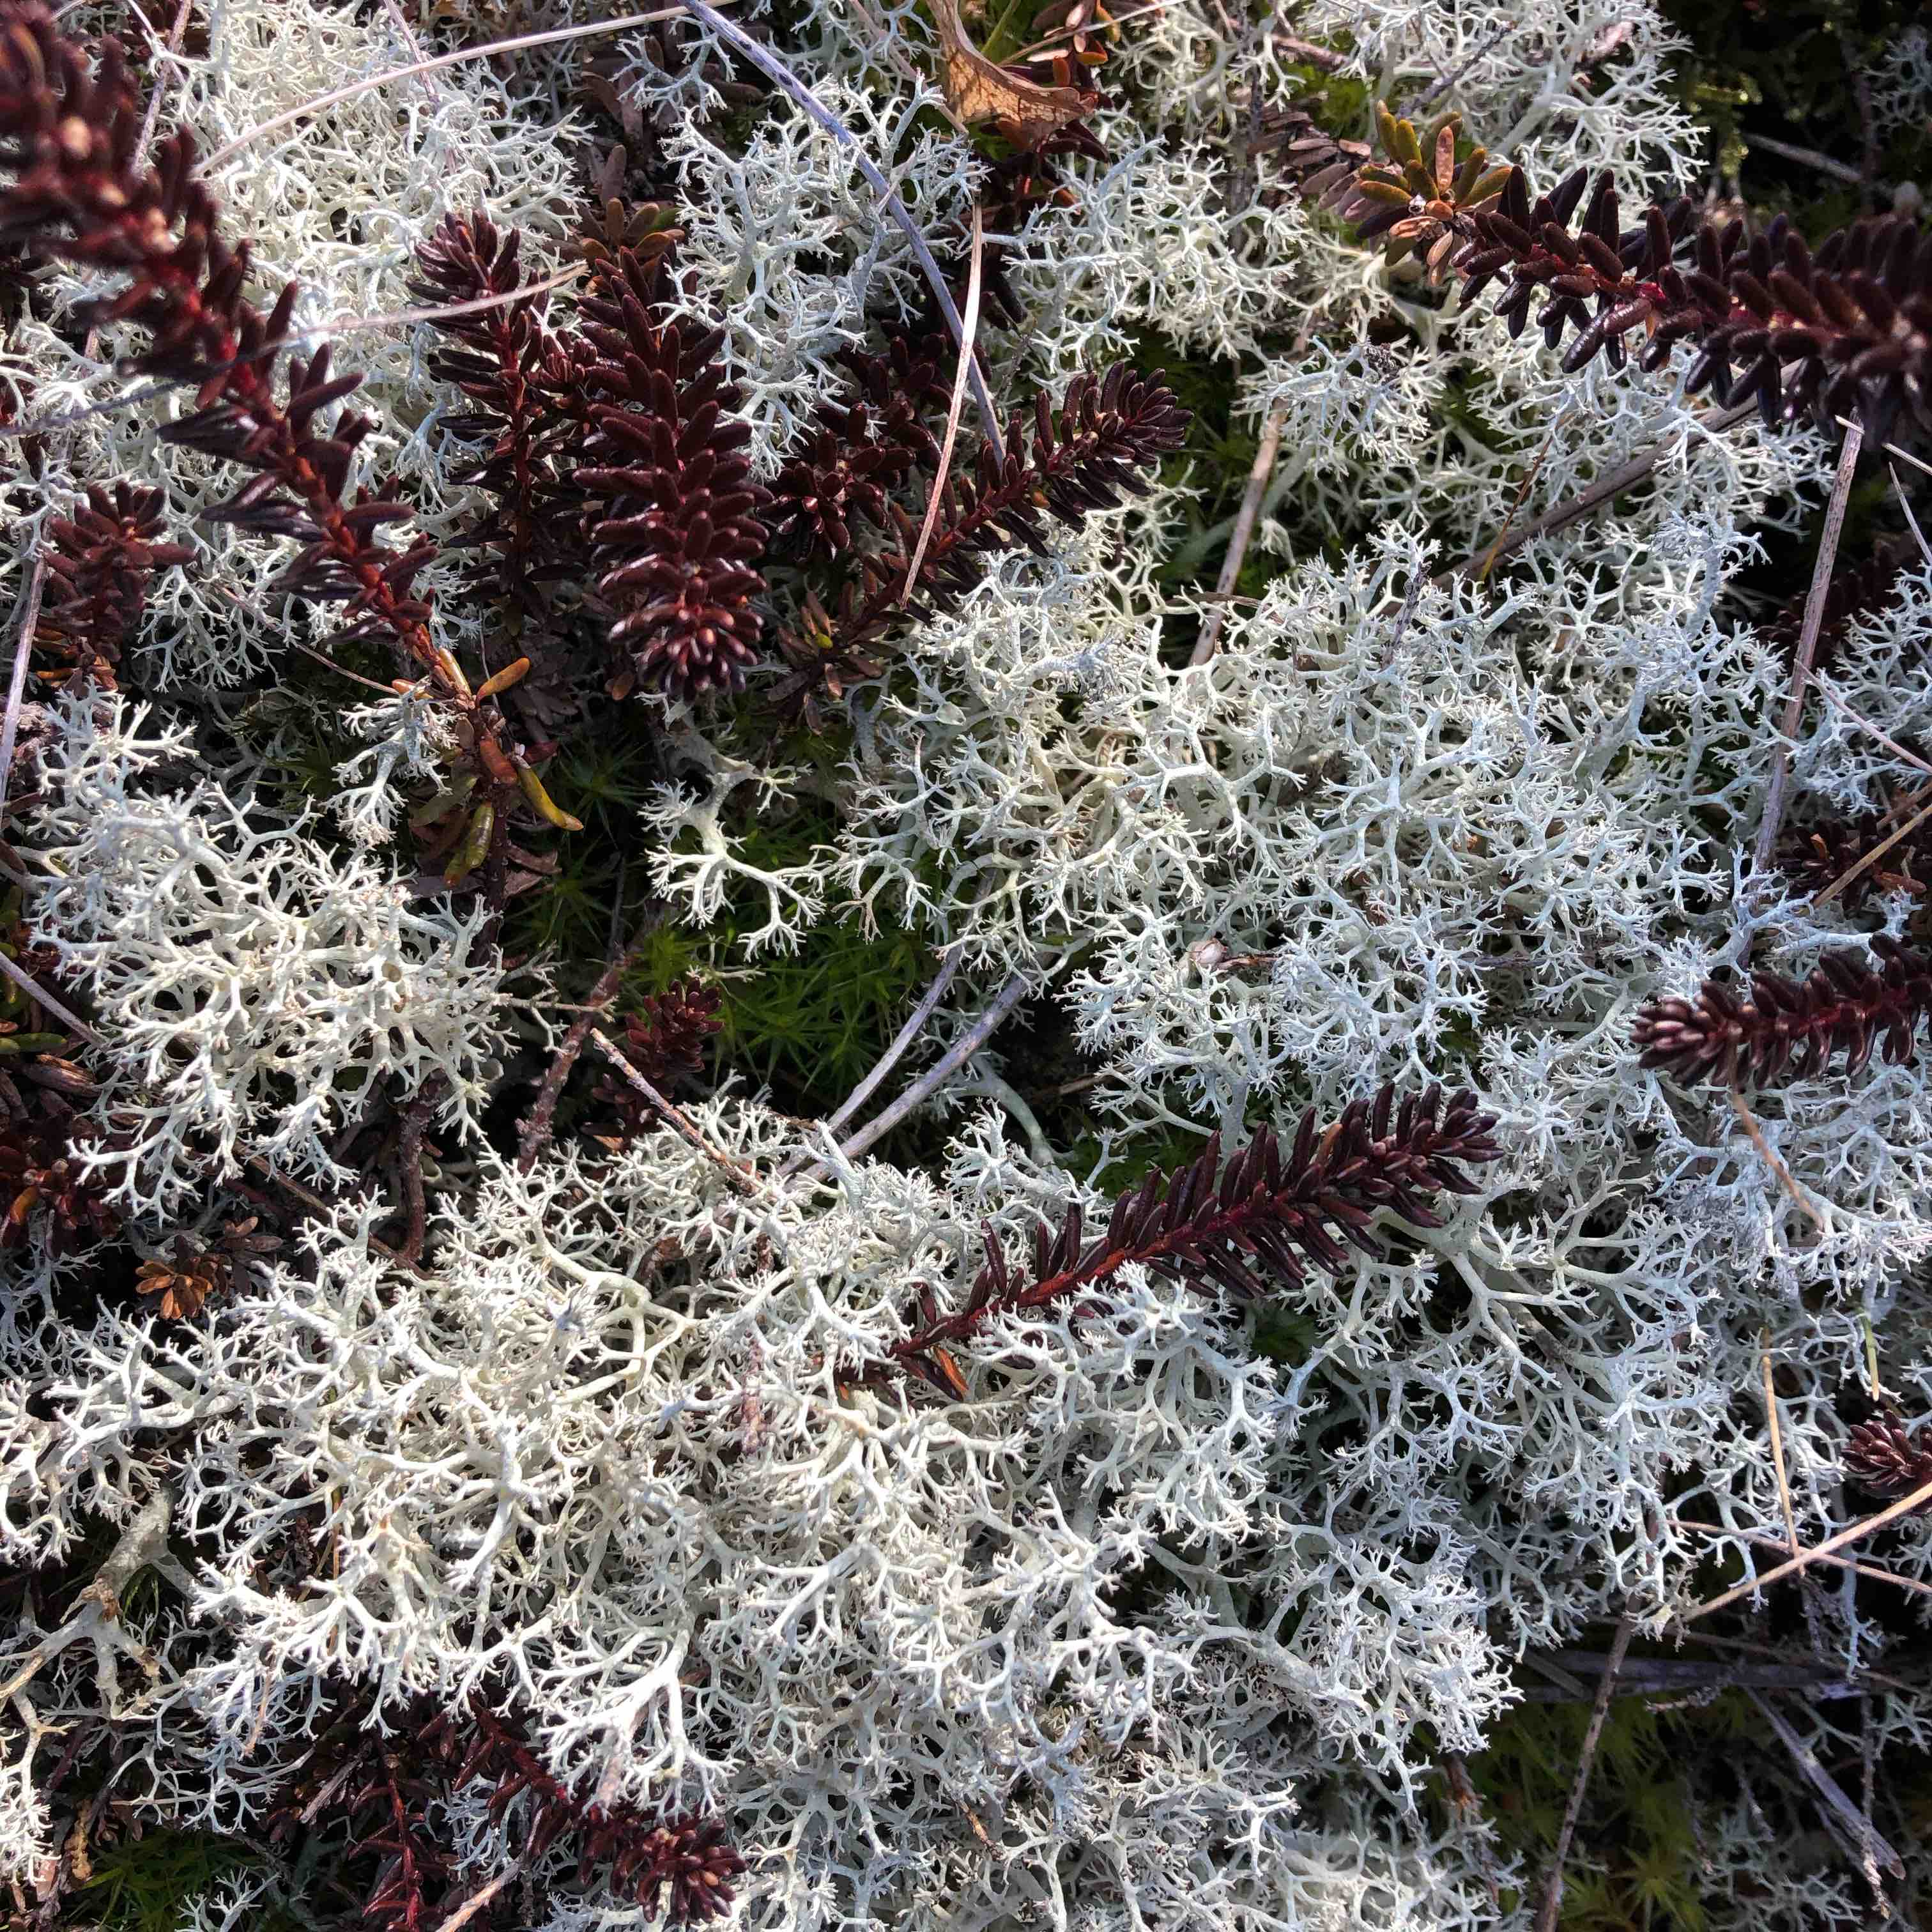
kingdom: Fungi
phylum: Ascomycota
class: Lecanoromycetes
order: Lecanorales
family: Cladoniaceae
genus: Cladonia
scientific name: Cladonia portentosa
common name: hede-rensdyrlav
